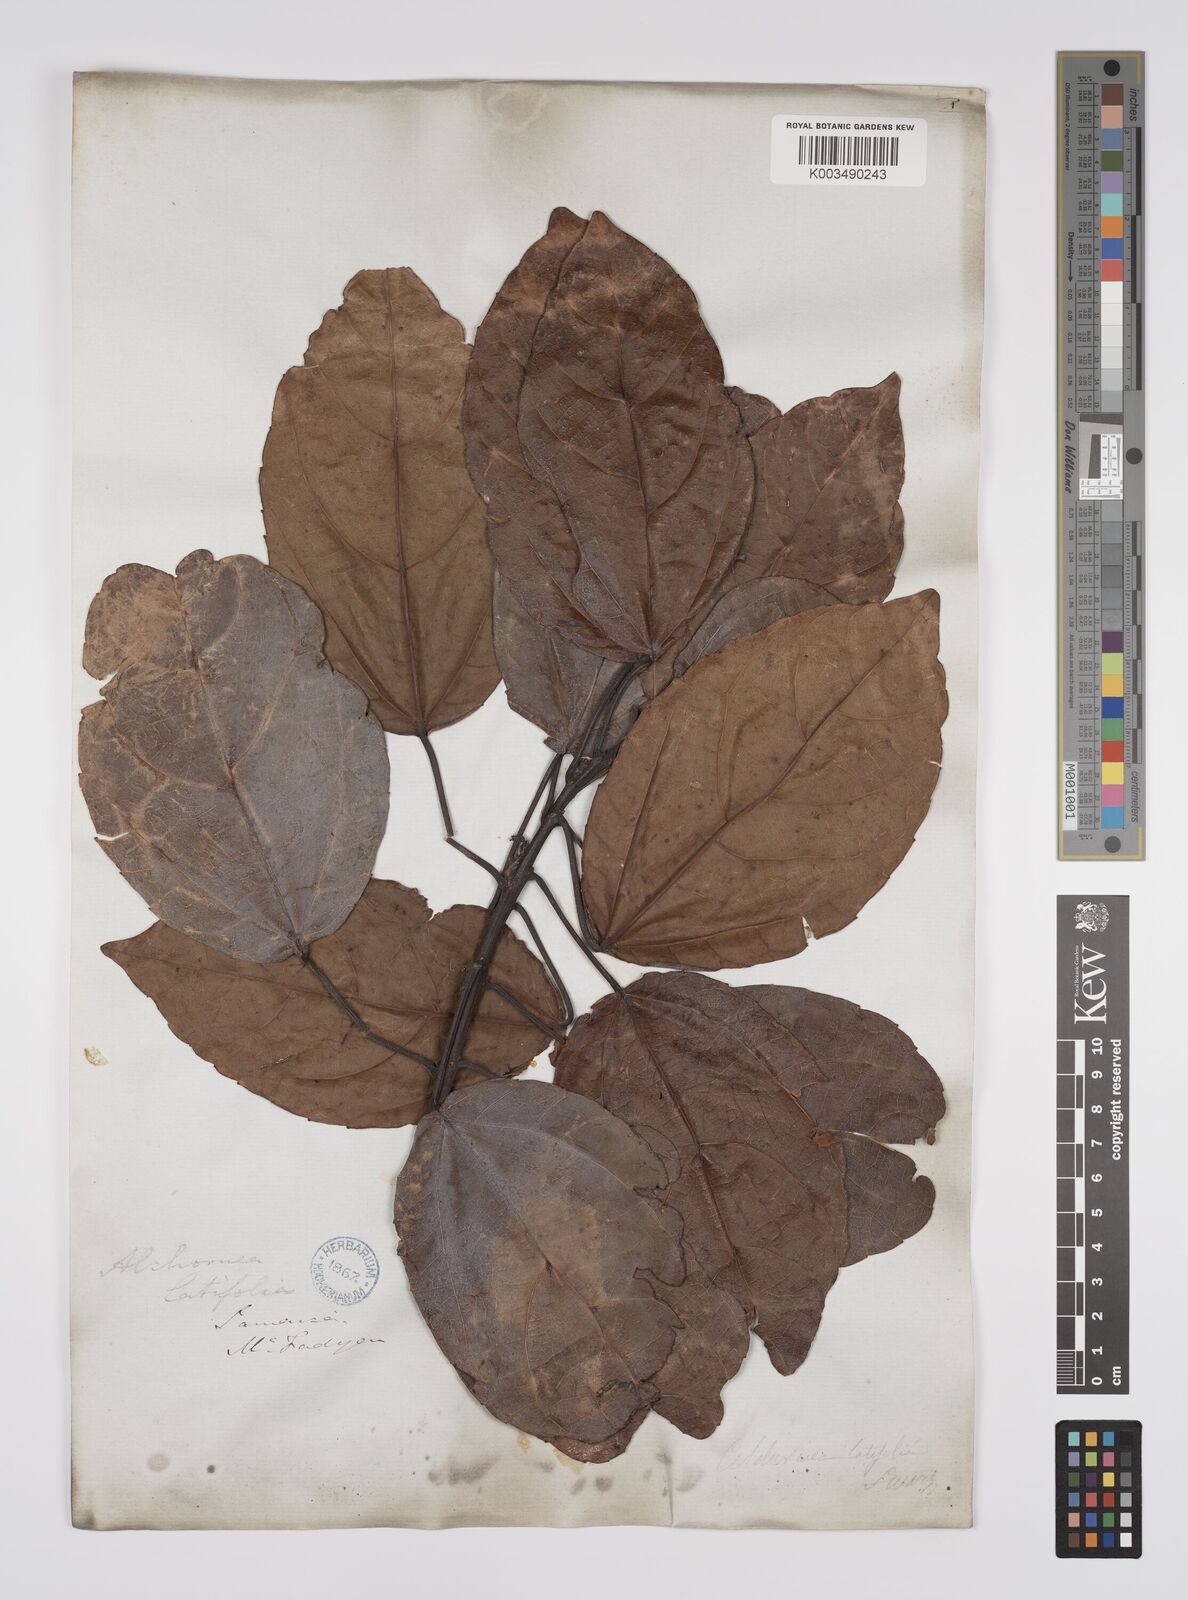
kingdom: Plantae
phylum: Tracheophyta
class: Magnoliopsida
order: Malpighiales
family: Euphorbiaceae
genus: Alchornea
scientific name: Alchornea latifolia
